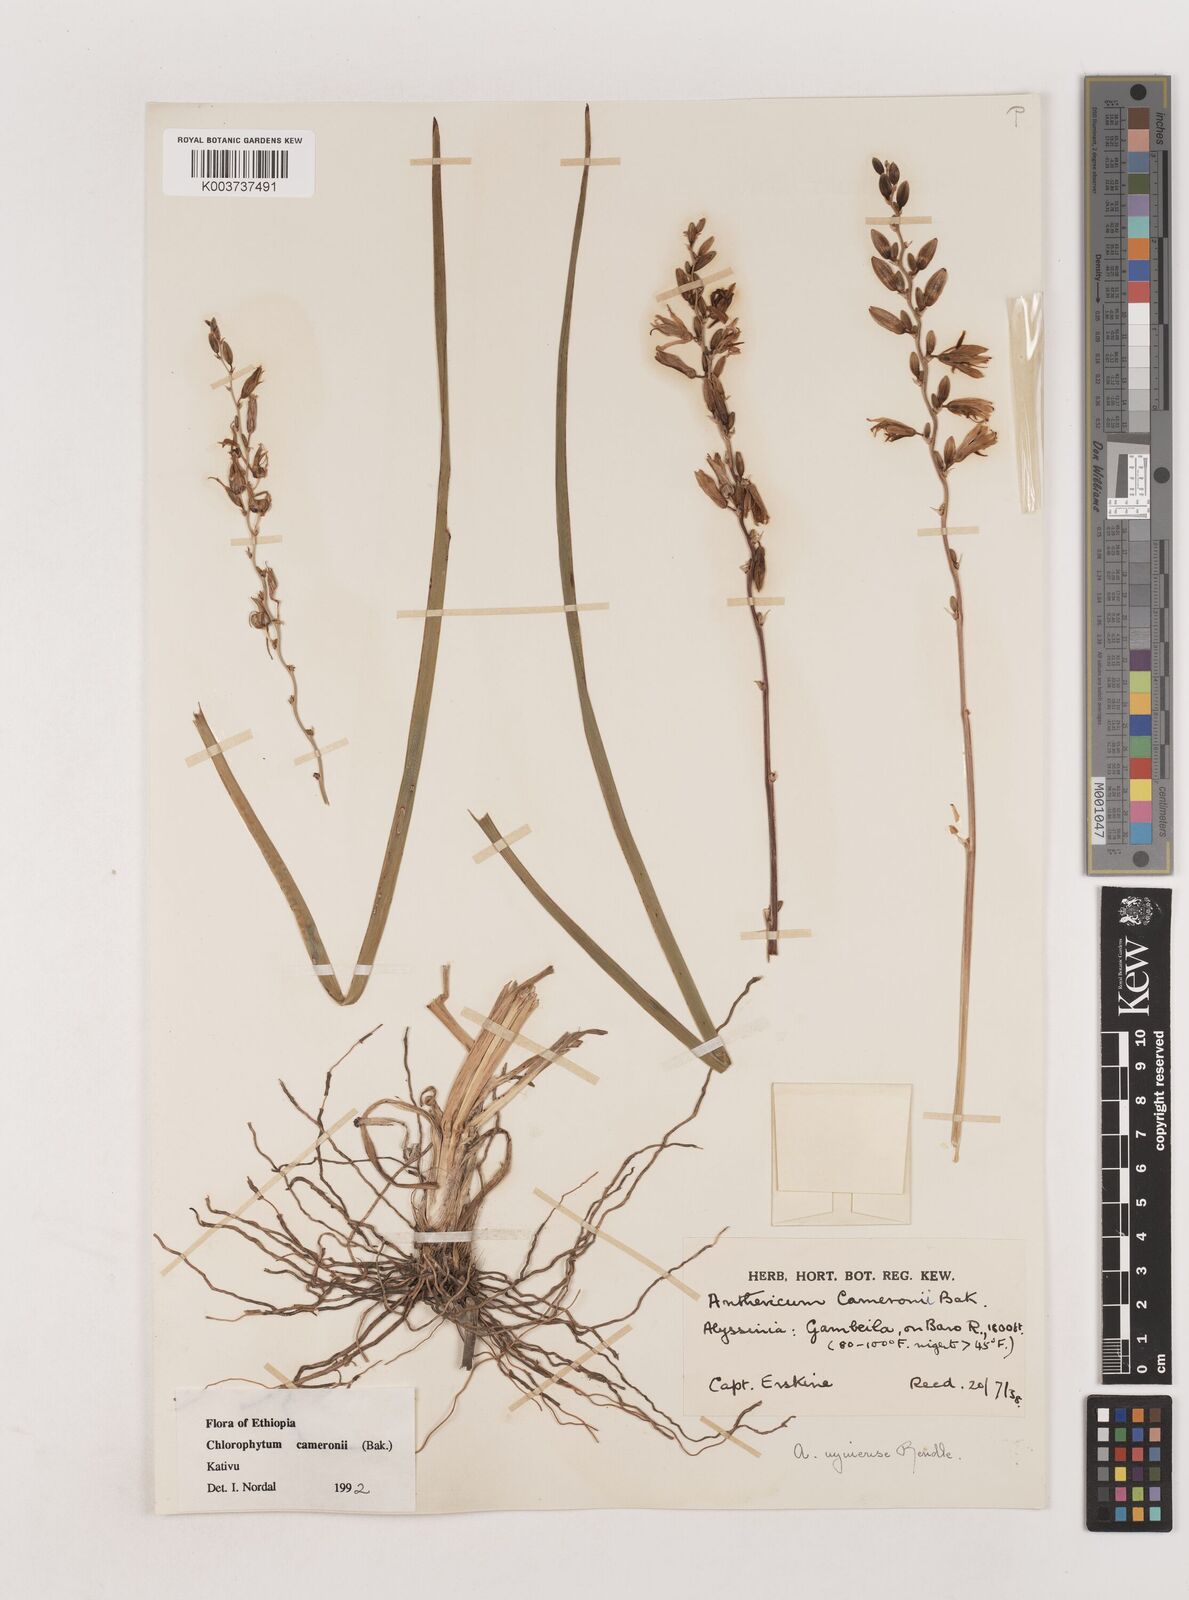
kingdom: Plantae
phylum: Tracheophyta
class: Liliopsida
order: Asparagales
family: Asparagaceae
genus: Chlorophytum
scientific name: Chlorophytum cameronii
